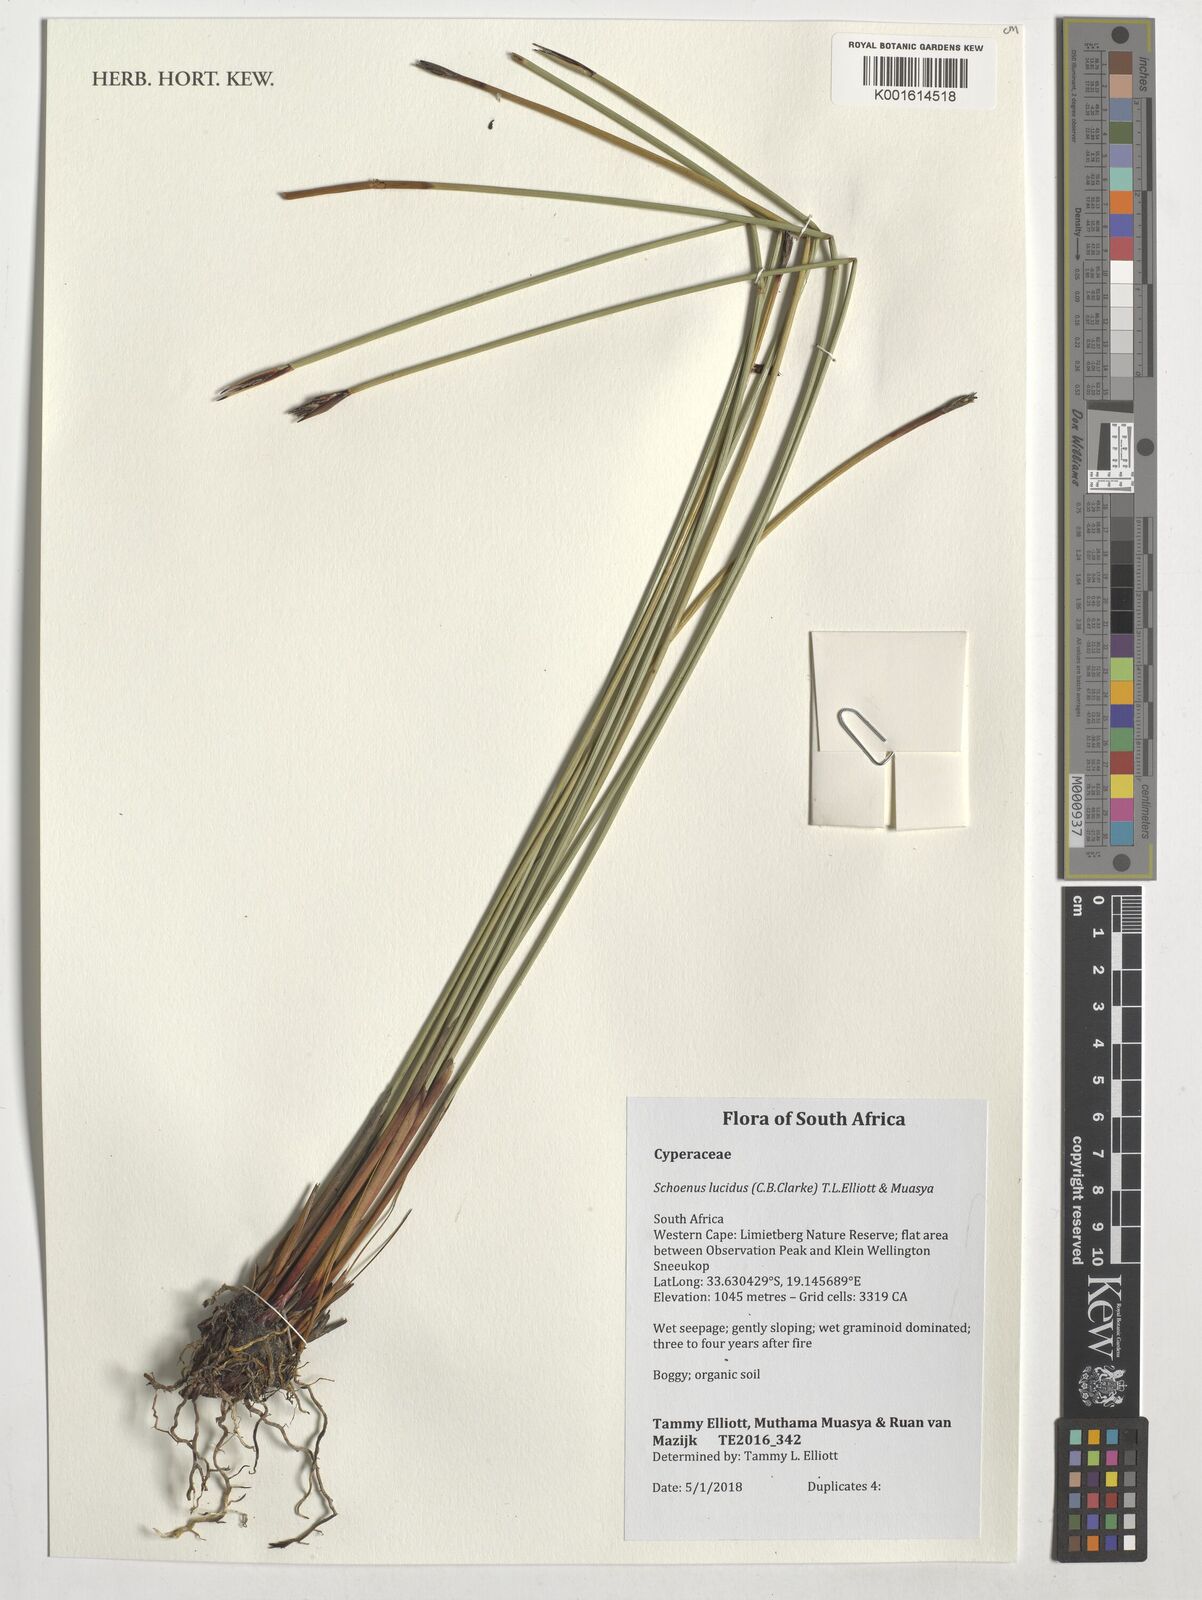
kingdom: Plantae
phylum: Tracheophyta
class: Liliopsida
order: Poales
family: Cyperaceae
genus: Schoenus
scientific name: Schoenus lucidus
